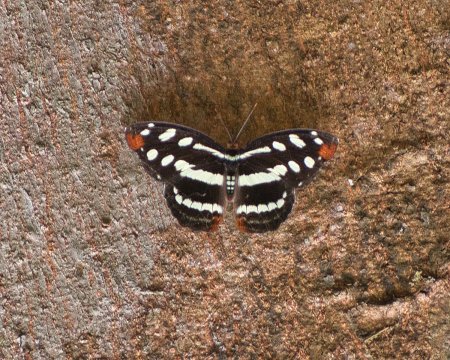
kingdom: Animalia
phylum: Arthropoda
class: Insecta
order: Lepidoptera
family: Nymphalidae
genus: Catonephele
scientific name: Catonephele
